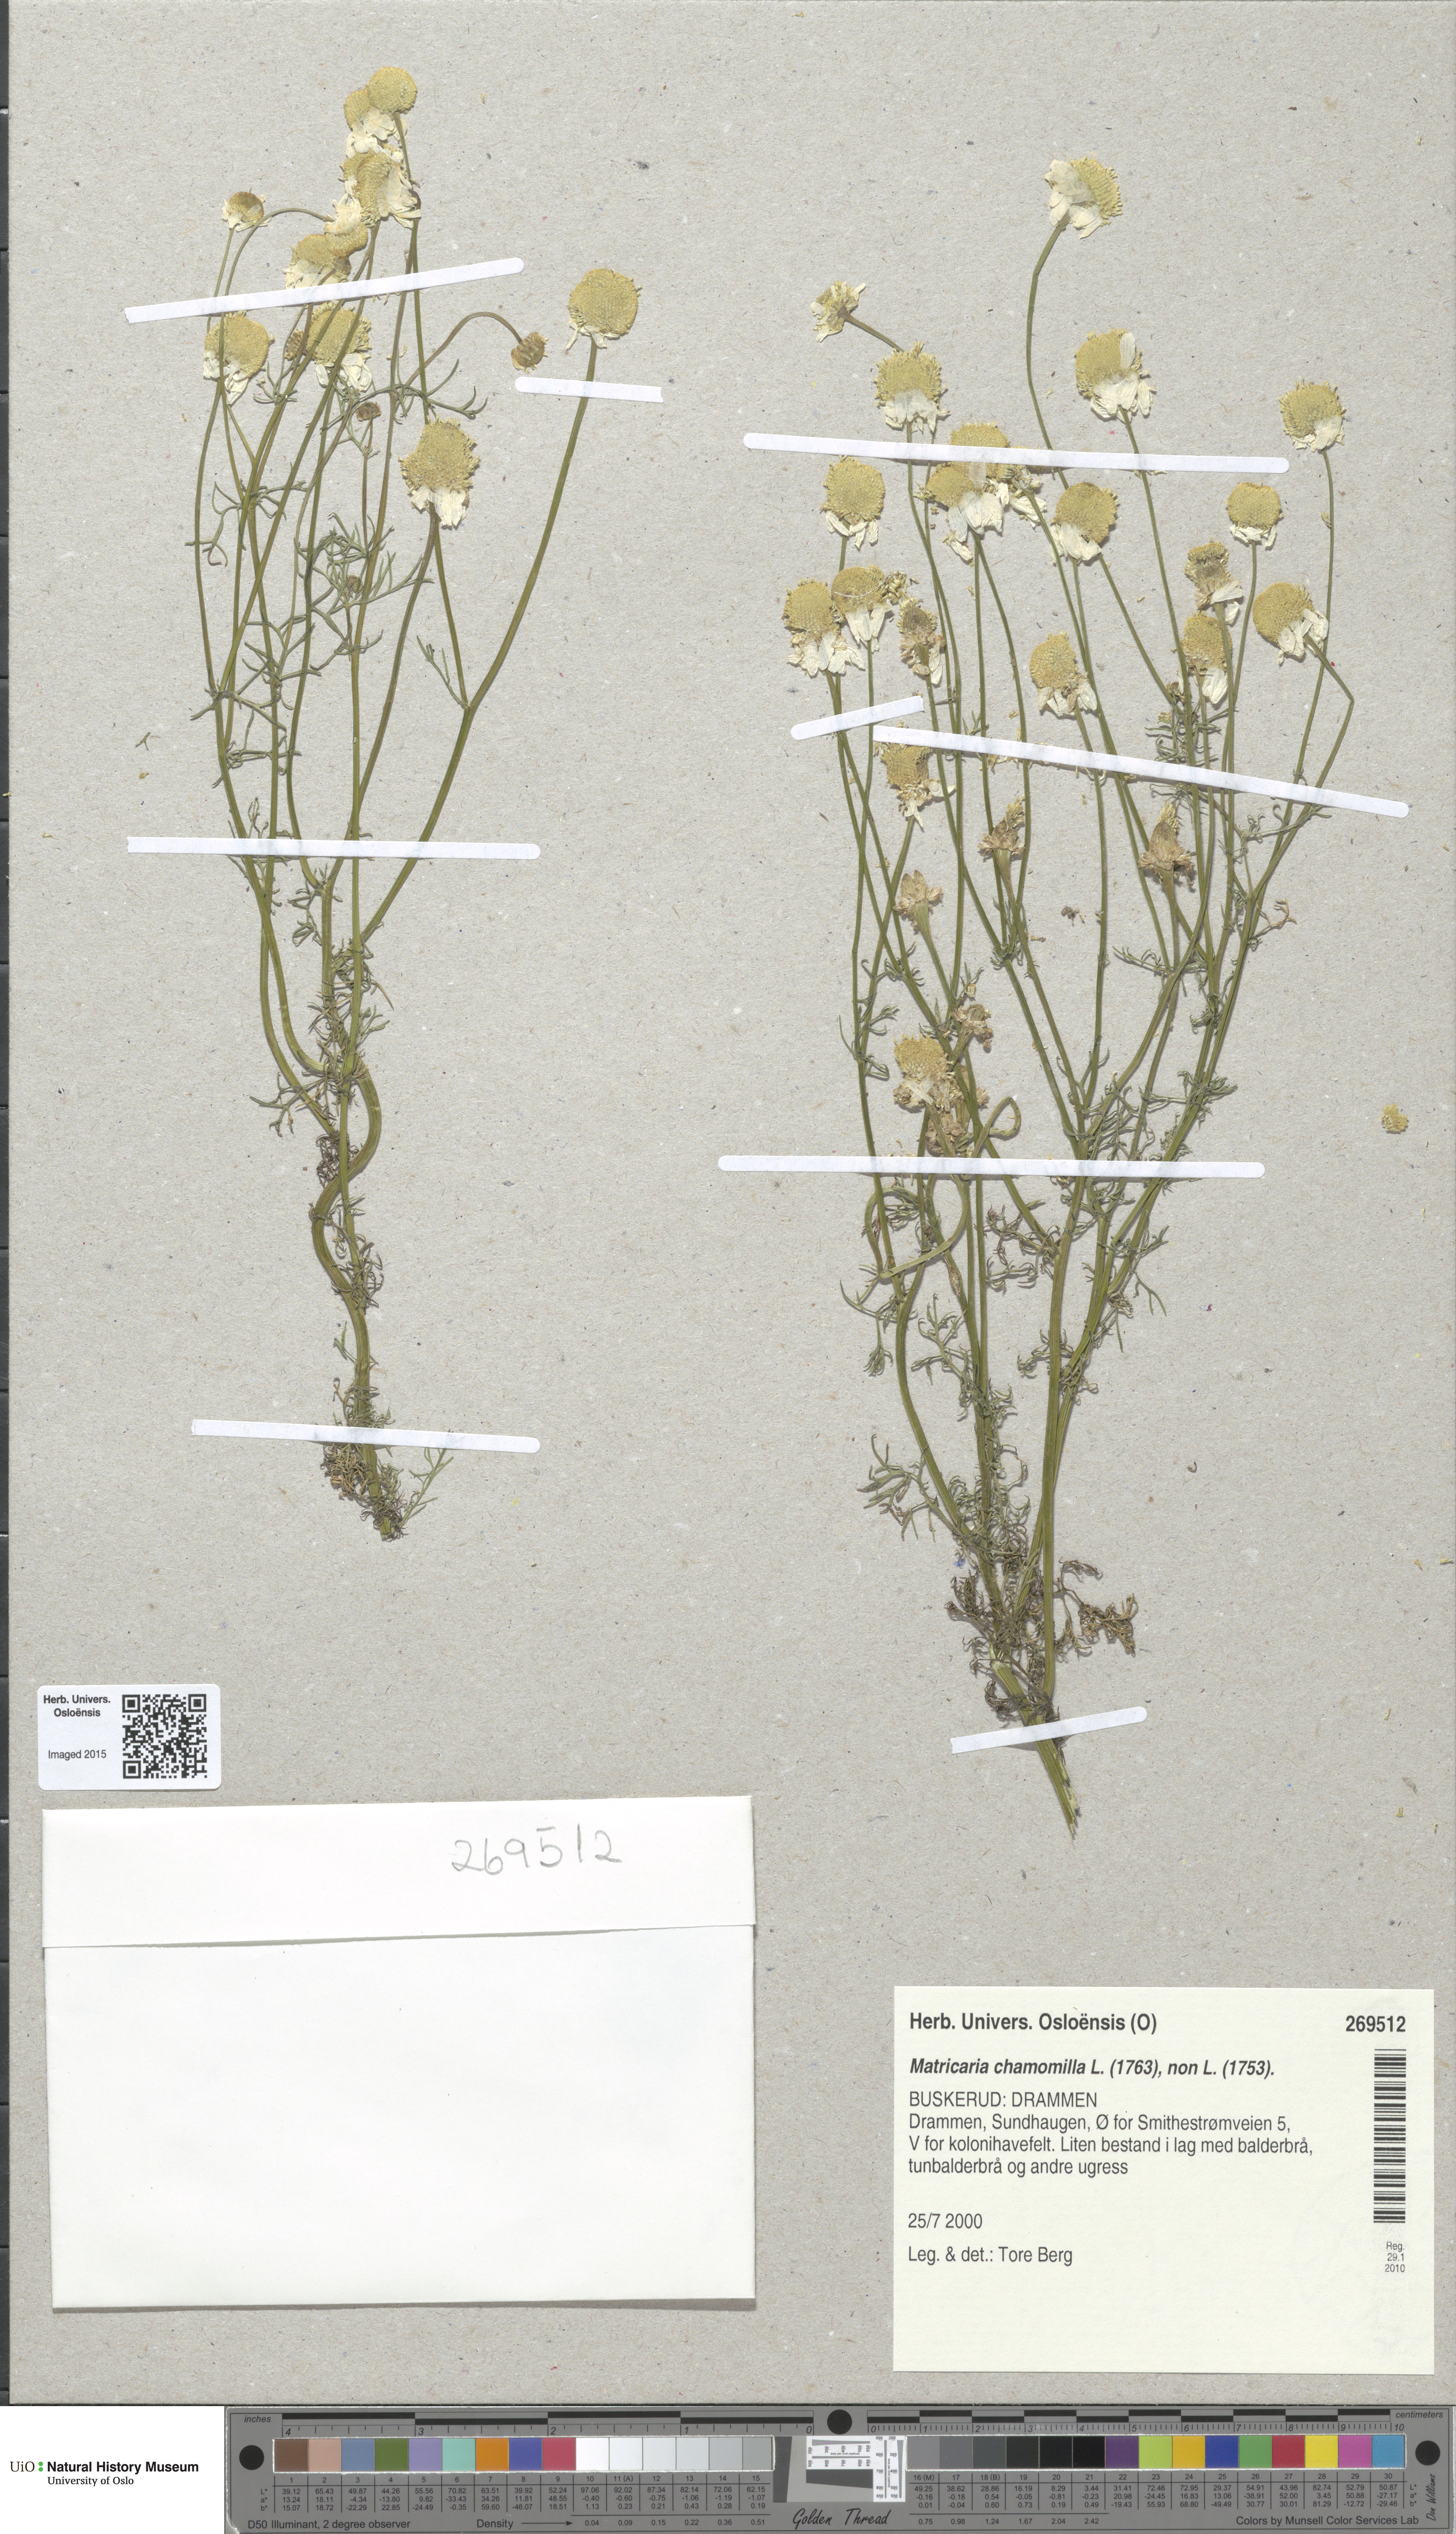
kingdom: Plantae
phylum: Tracheophyta
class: Magnoliopsida
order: Asterales
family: Asteraceae
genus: Matricaria
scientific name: Matricaria chamomilla
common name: Scented mayweed
